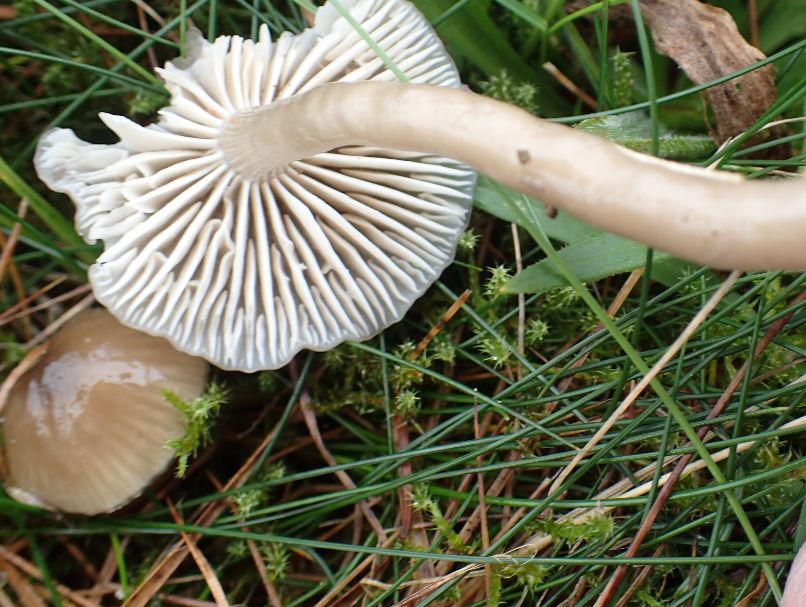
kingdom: Fungi
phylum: Basidiomycota
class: Agaricomycetes
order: Agaricales
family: Hygrophoraceae
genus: Gliophorus
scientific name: Gliophorus irrigatus
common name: slimet vokshat
